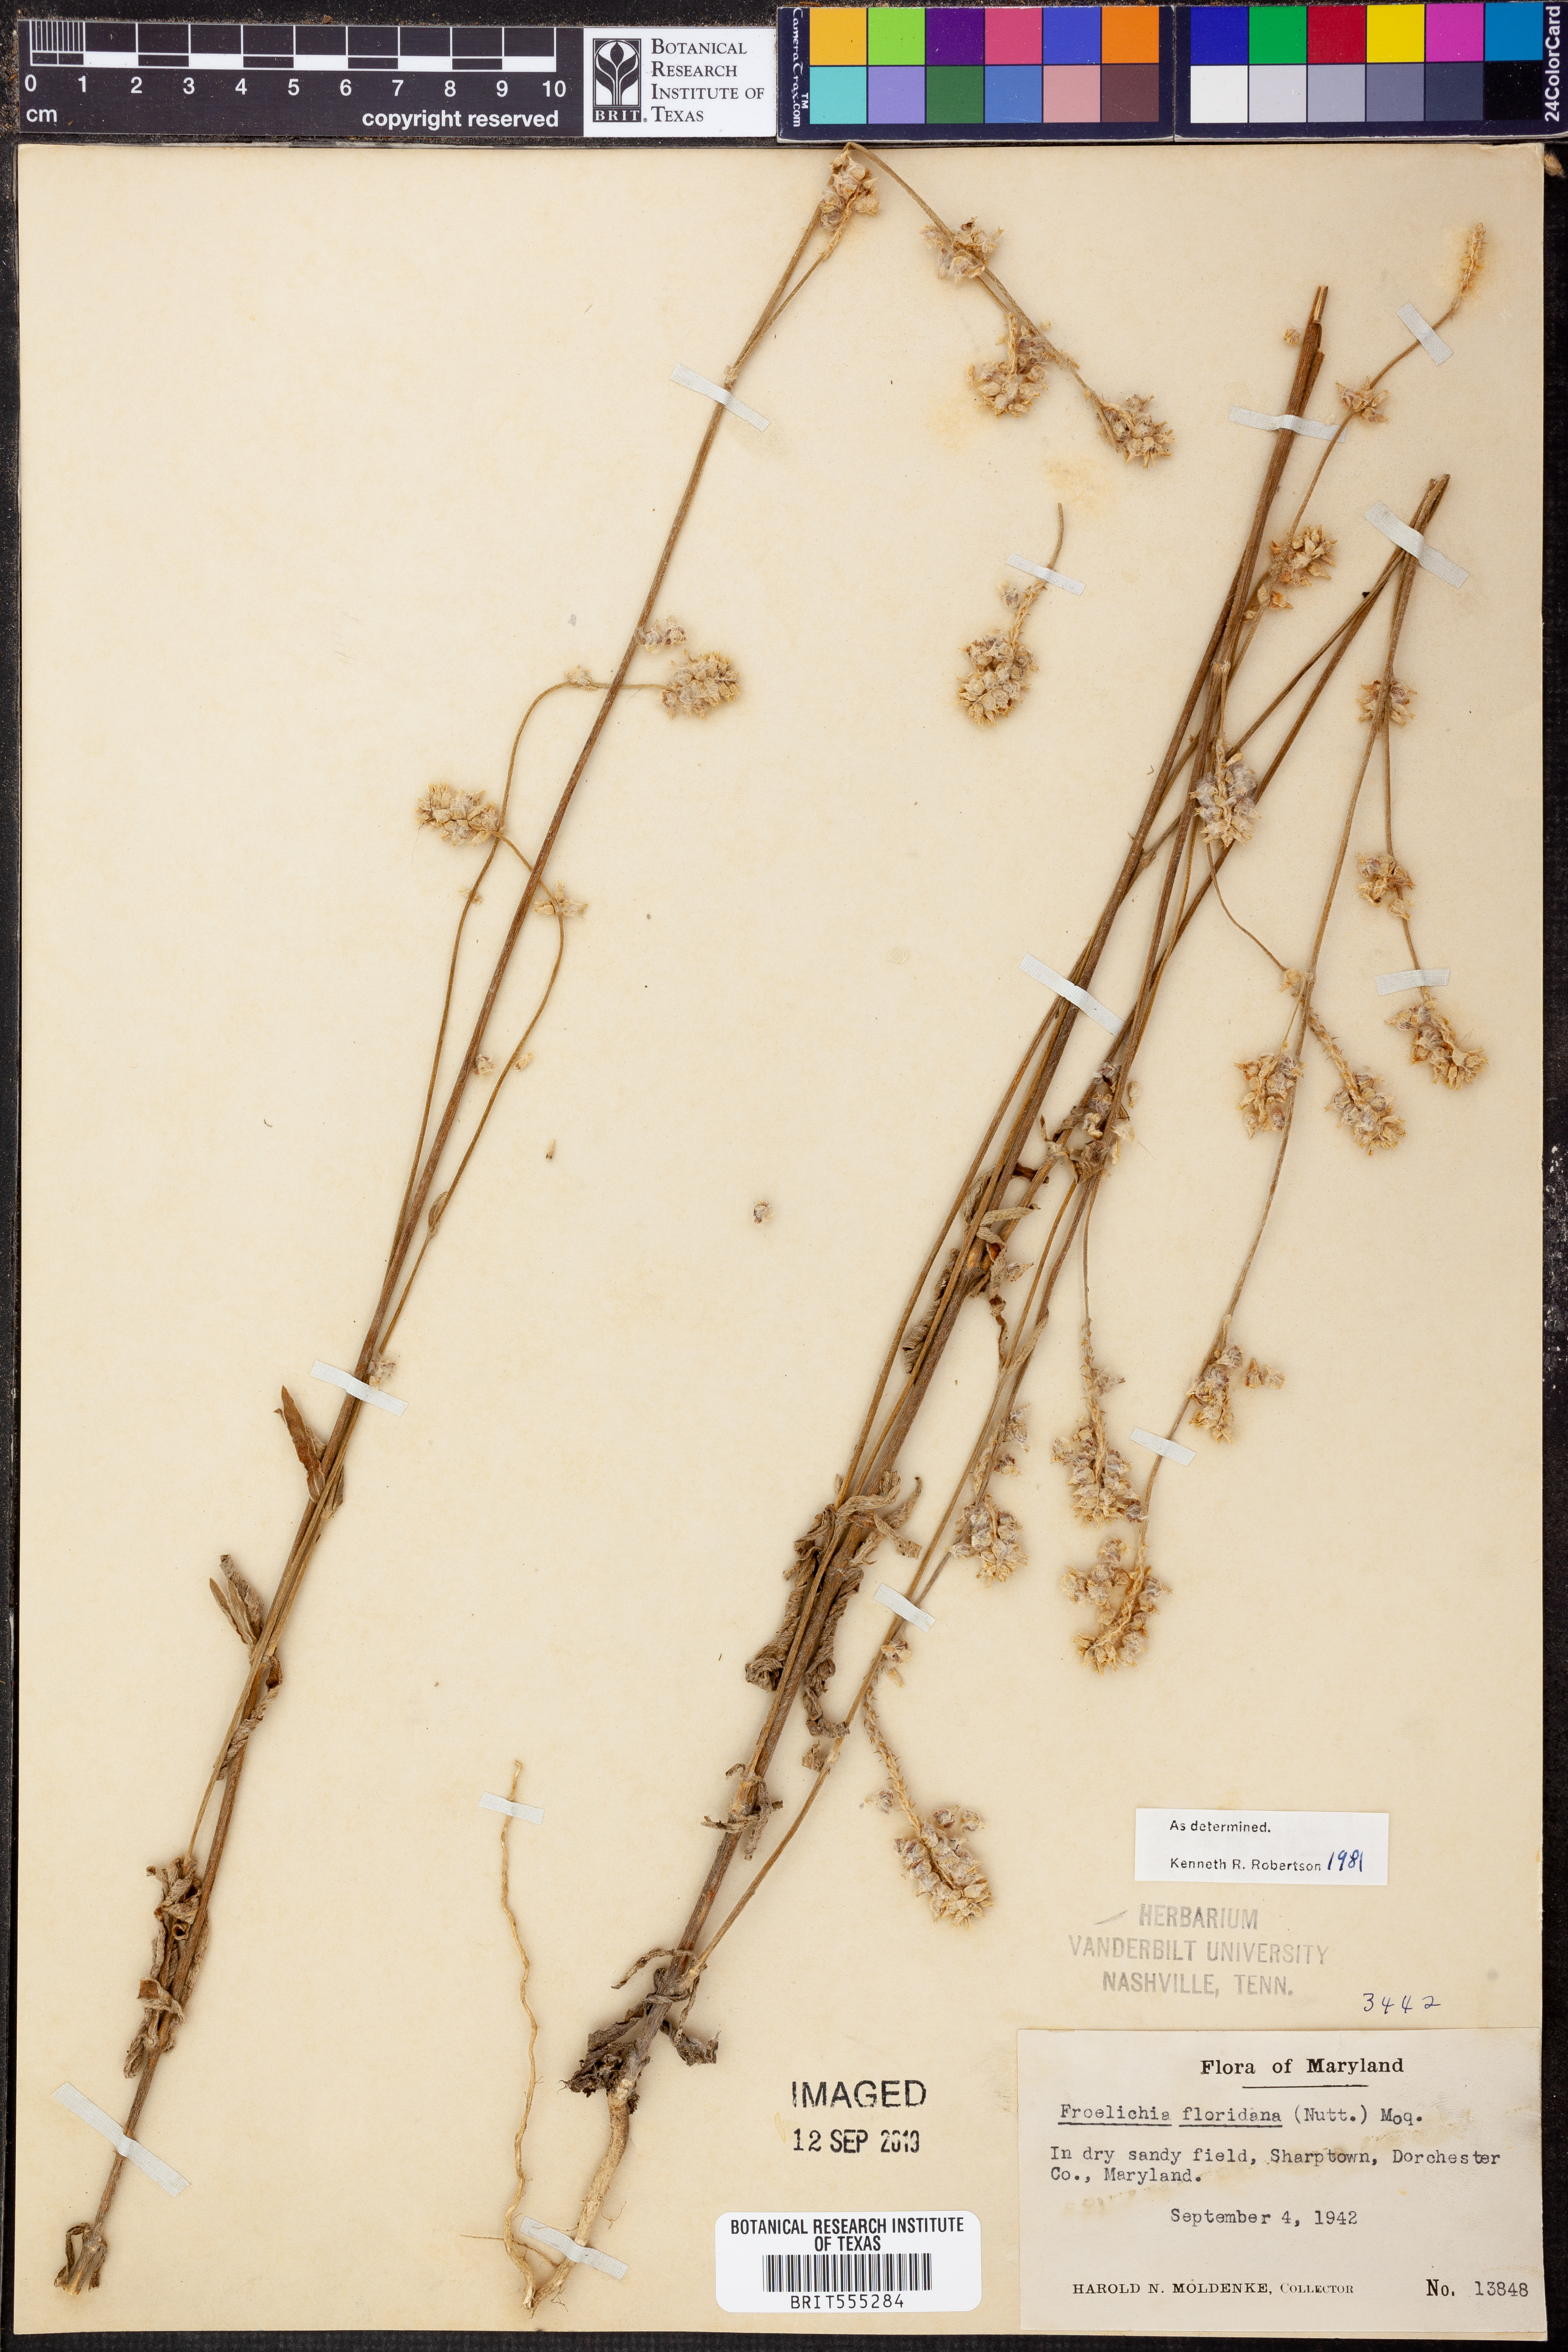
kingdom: Plantae
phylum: Tracheophyta
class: Magnoliopsida
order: Caryophyllales
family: Amaranthaceae
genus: Froelichia
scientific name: Froelichia floridana
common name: Florida snake-cotton
